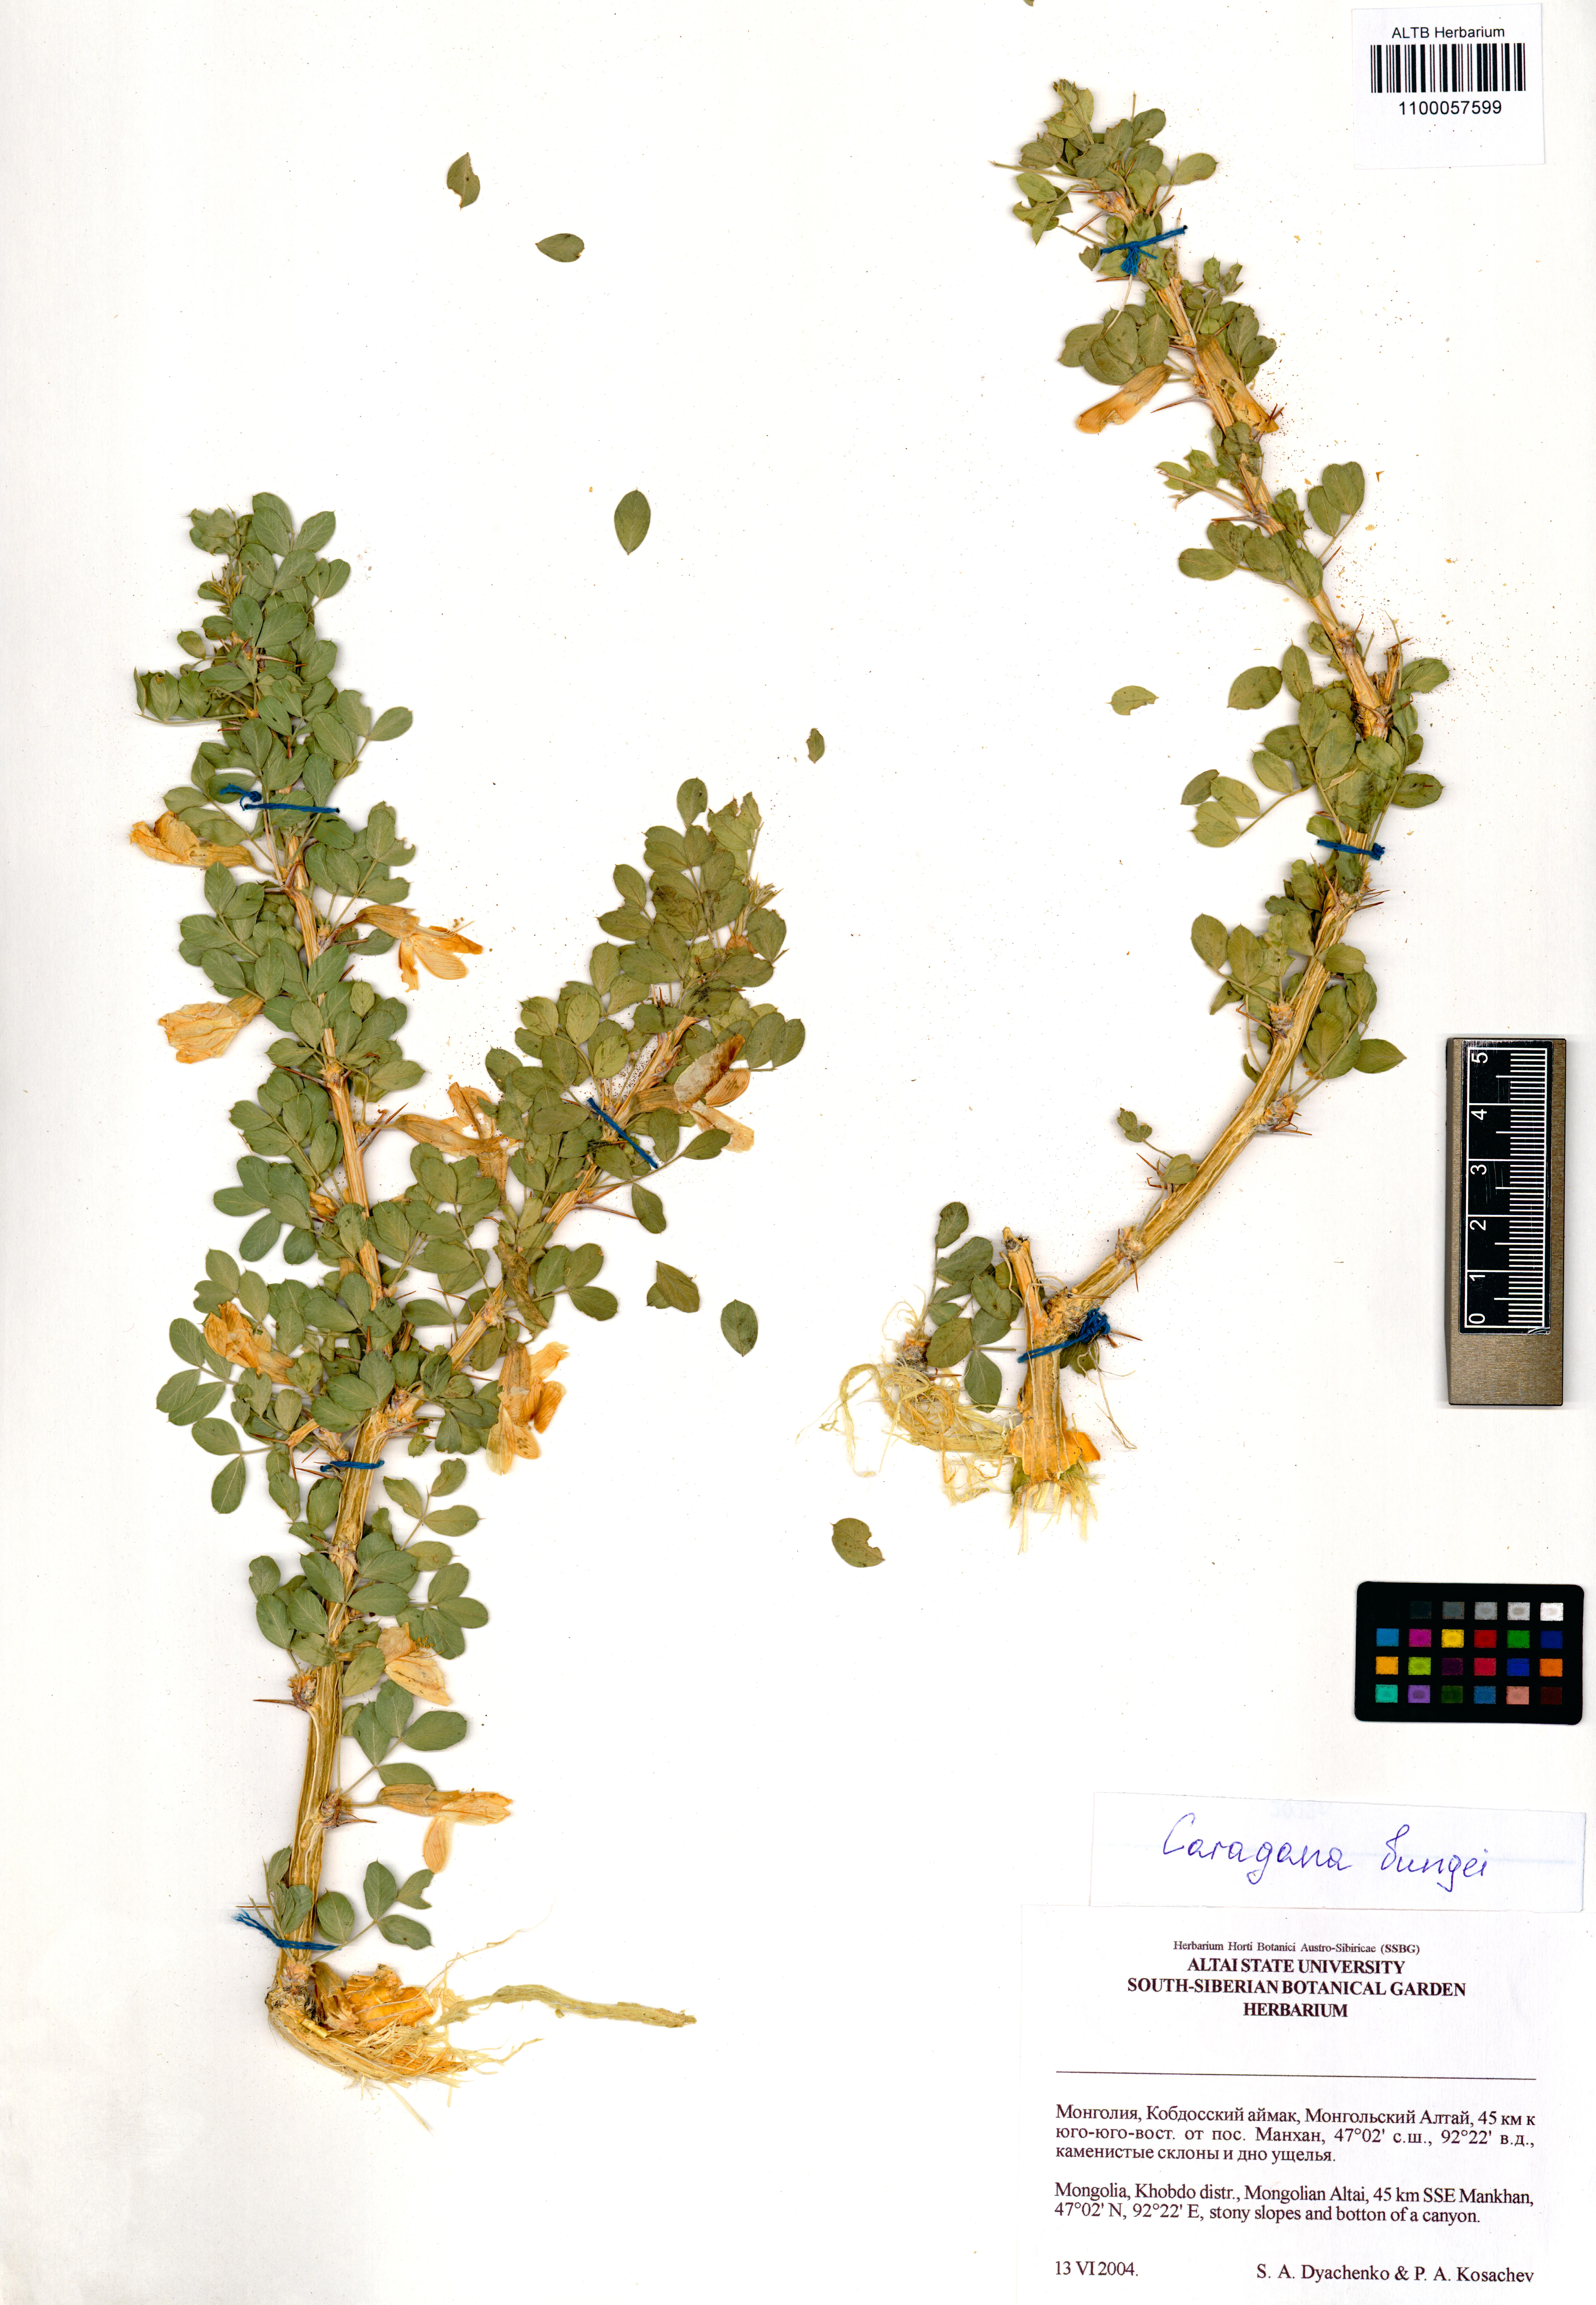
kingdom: Plantae
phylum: Tracheophyta
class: Magnoliopsida
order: Fabales
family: Fabaceae
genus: Caragana
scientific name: Caragana bungei
